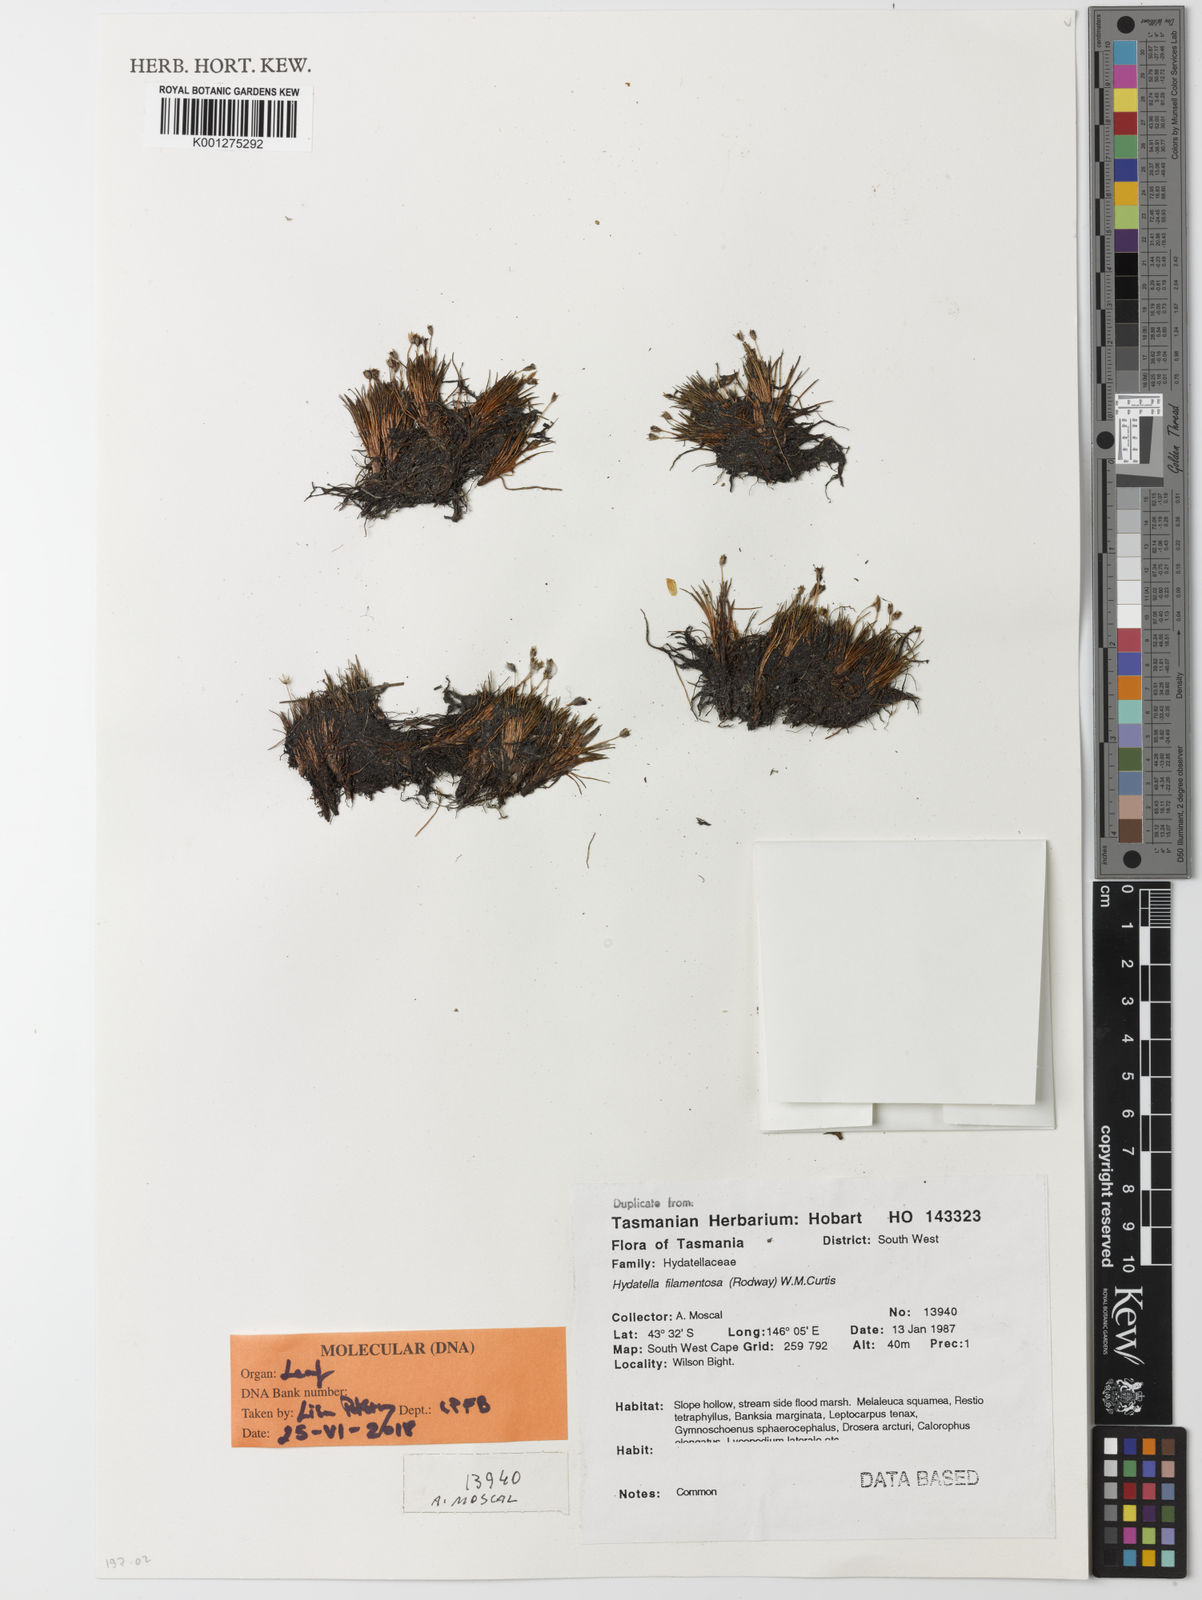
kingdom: Plantae
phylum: Tracheophyta
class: Magnoliopsida
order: Nymphaeales
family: Hydatellaceae
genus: Trithuria
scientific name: Trithuria filamentosa
